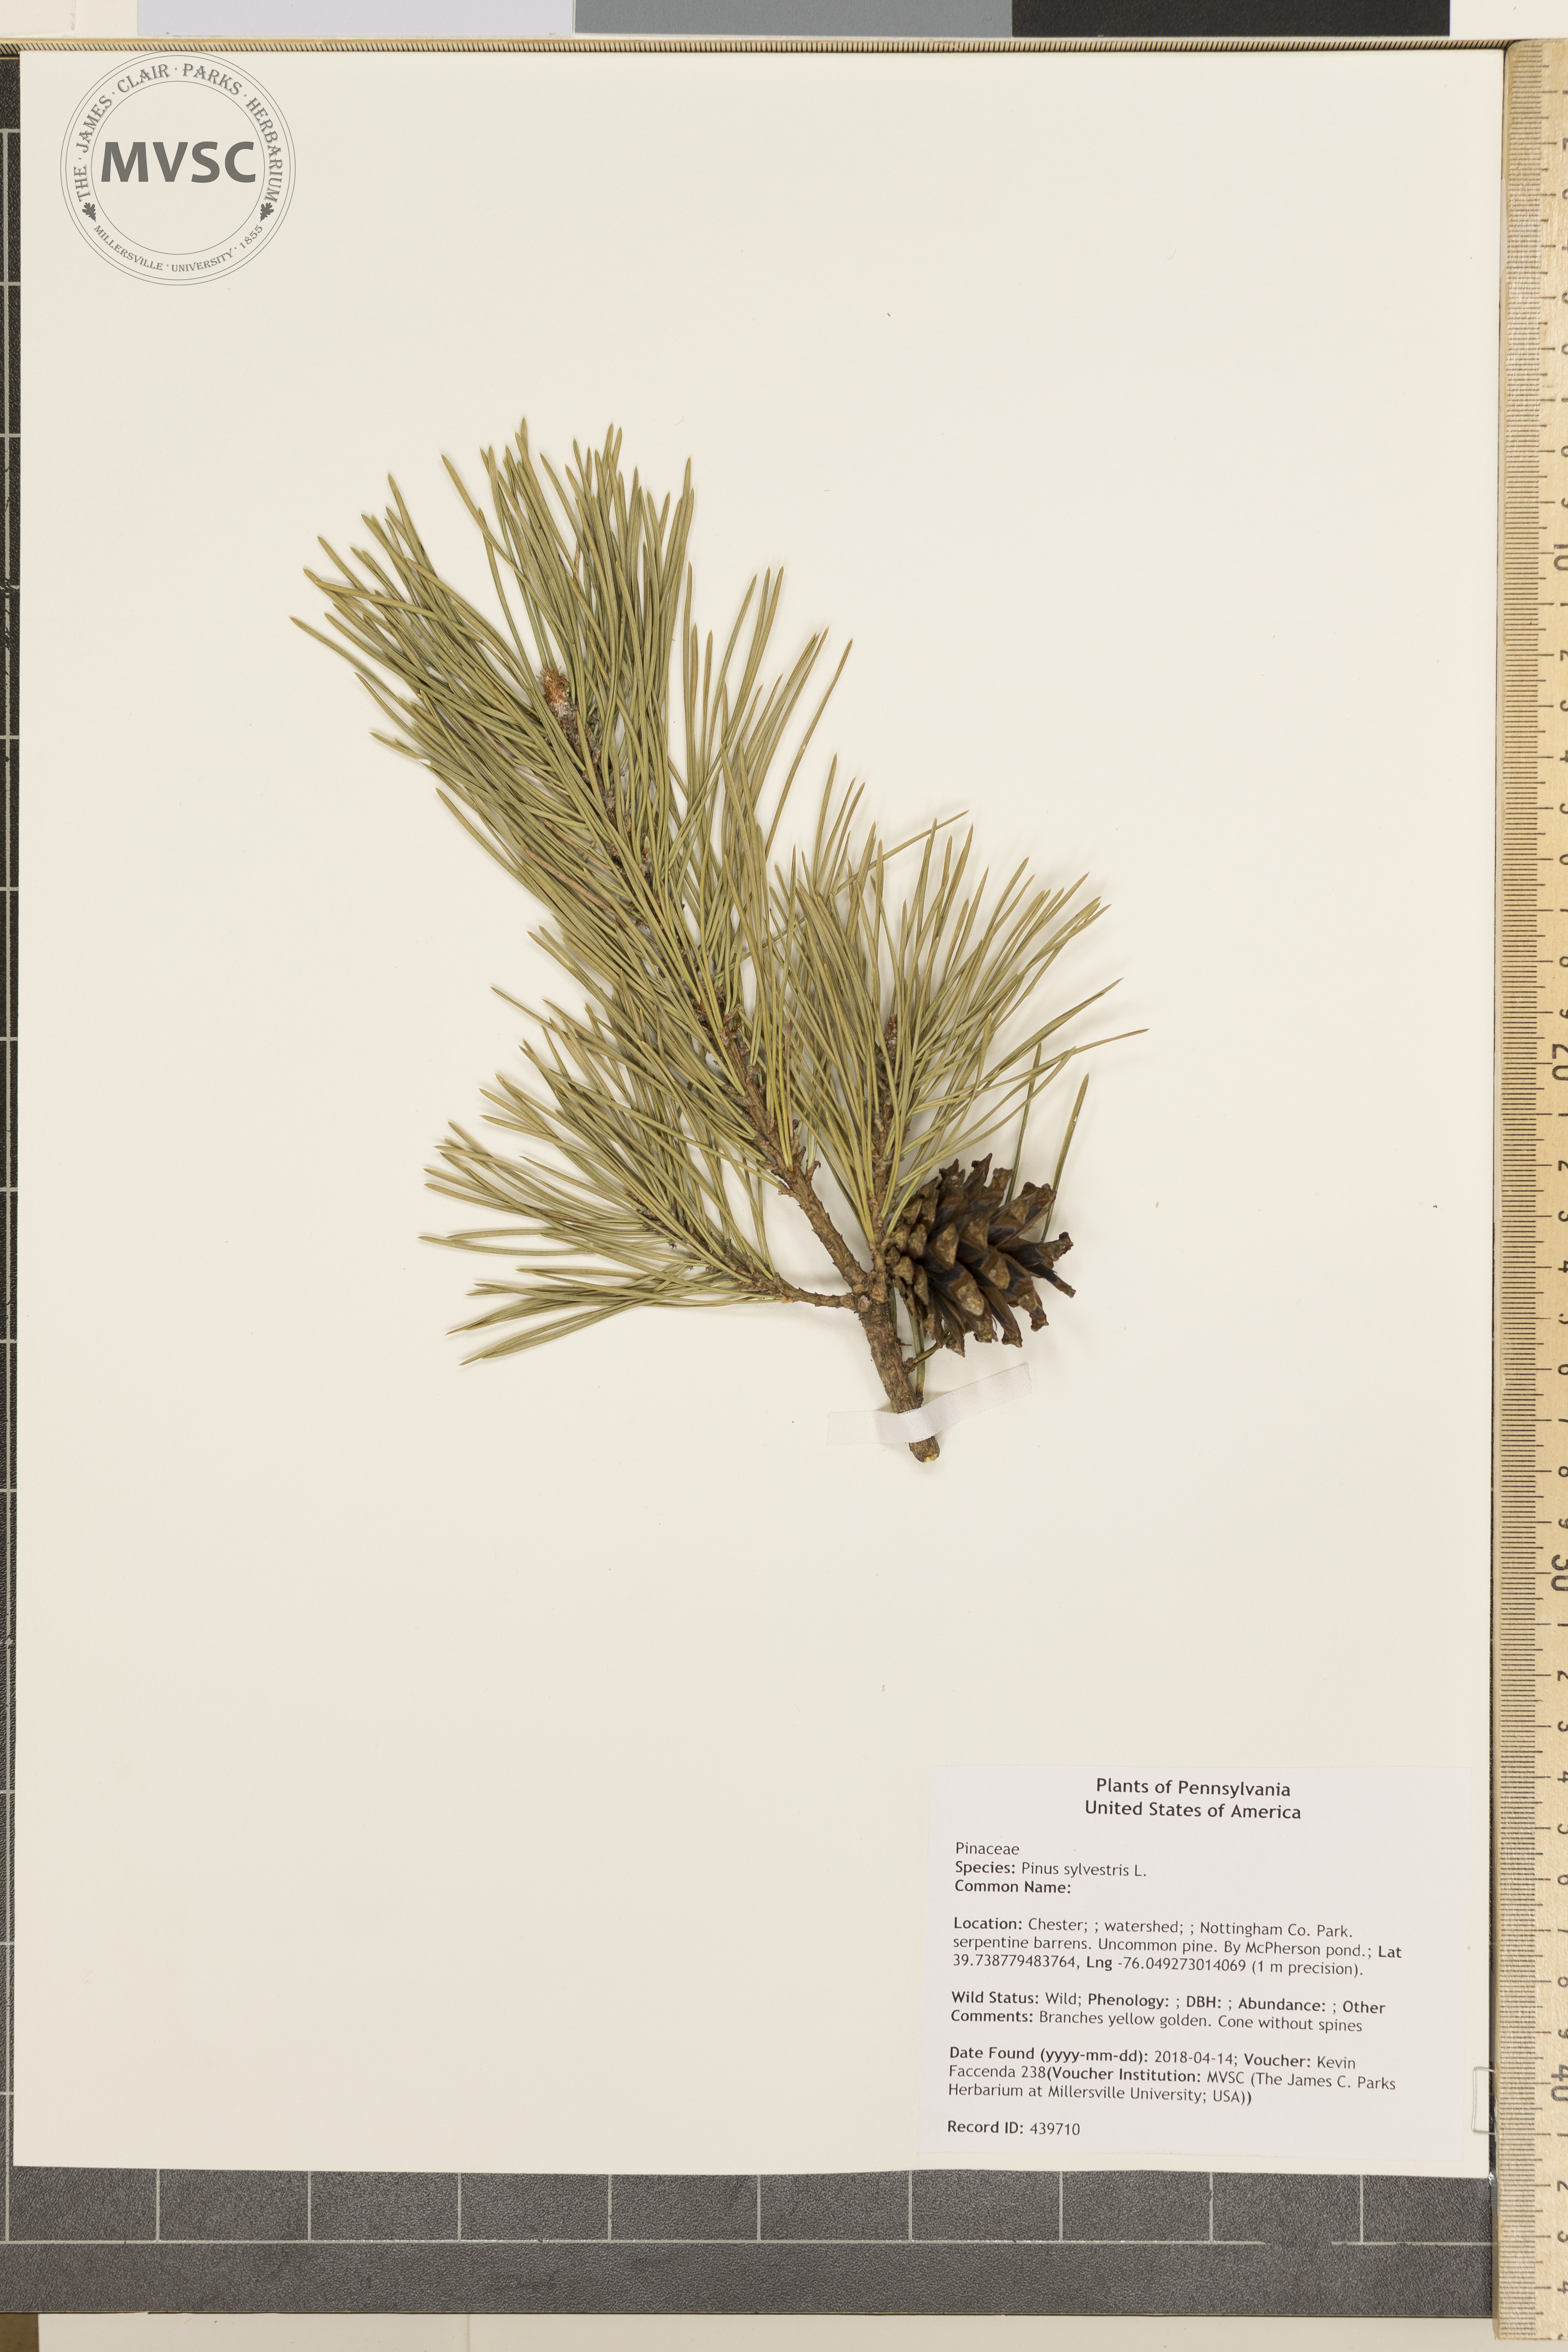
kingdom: Plantae
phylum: Tracheophyta
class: Pinopsida
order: Pinales
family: Pinaceae
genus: Pinus
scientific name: Pinus sylvestris
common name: Scots pine
